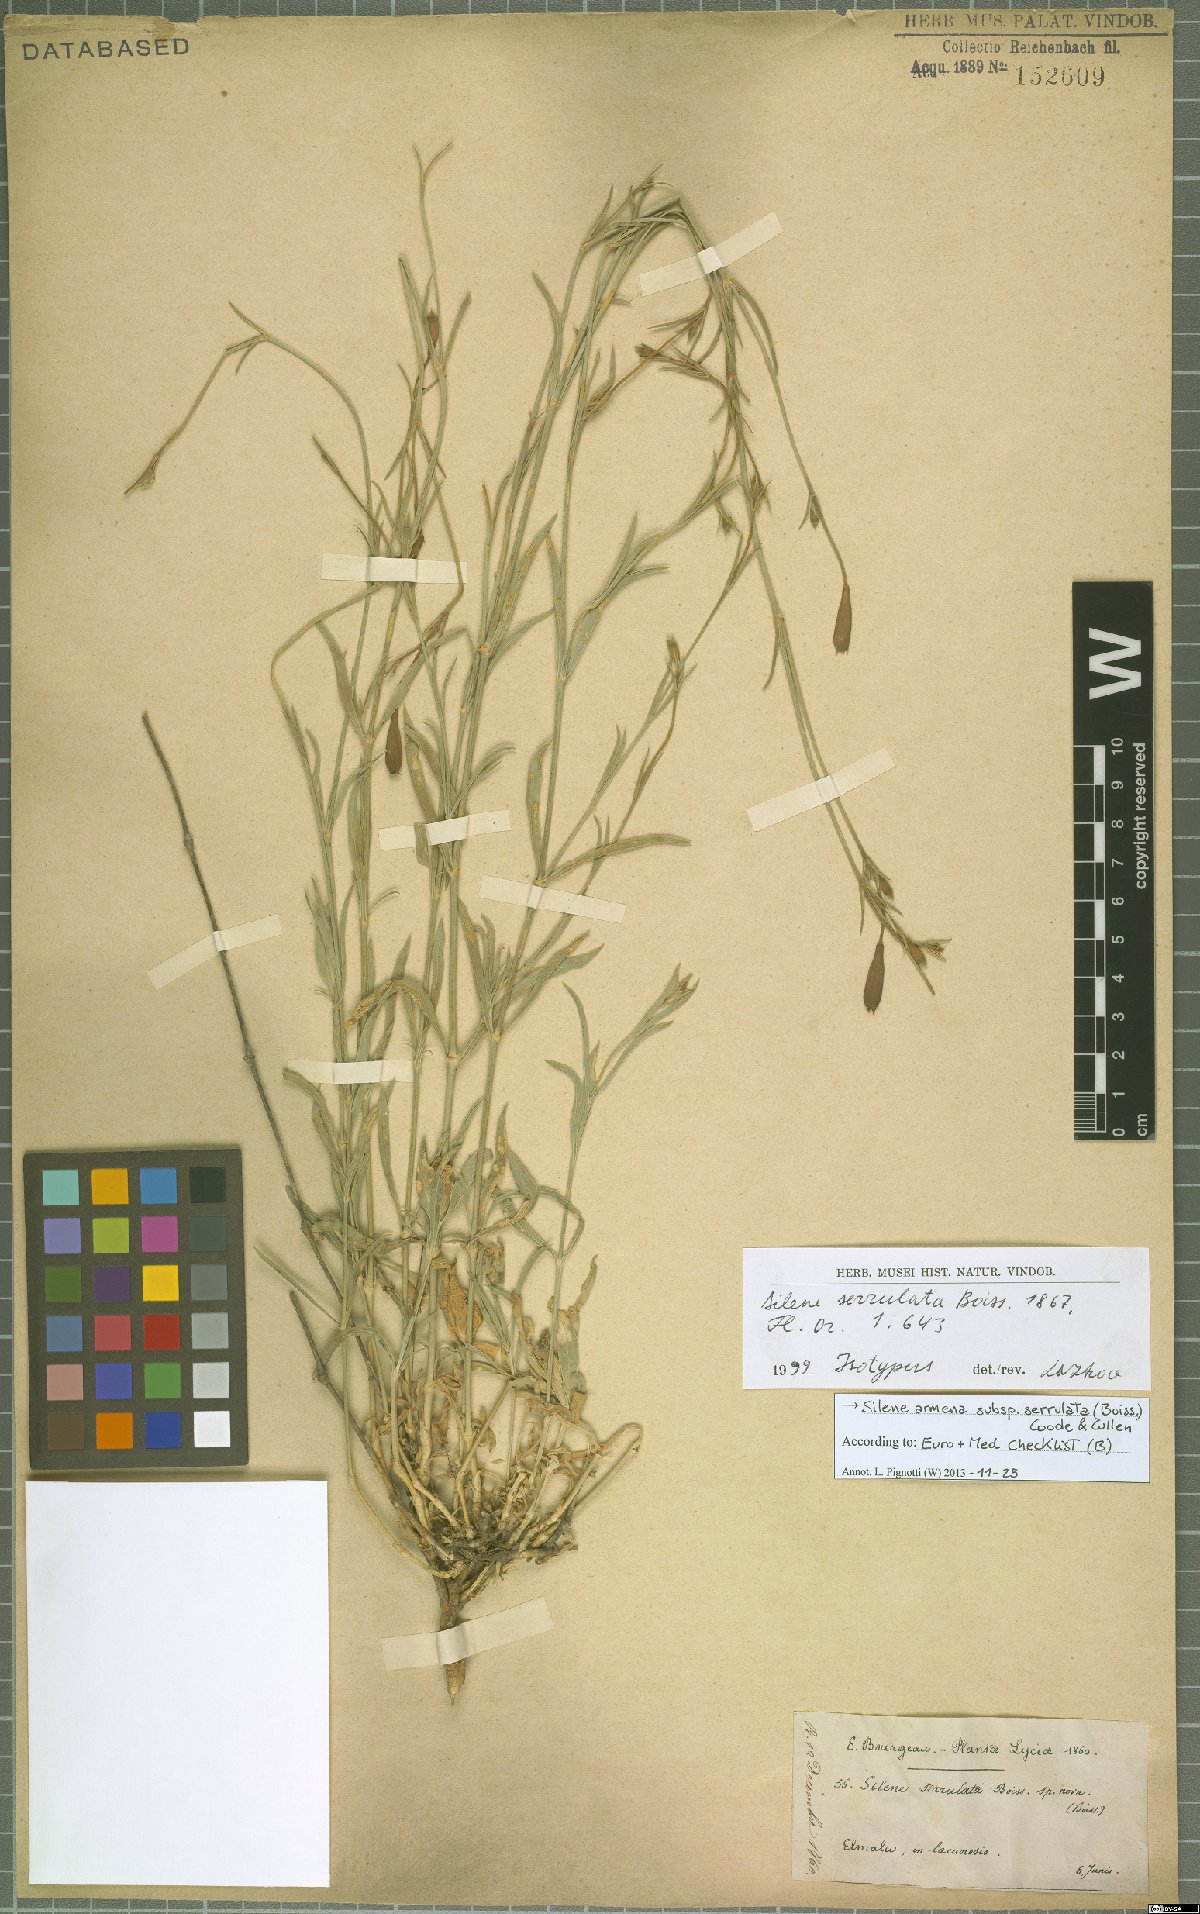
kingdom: Plantae
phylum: Tracheophyta
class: Magnoliopsida
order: Caryophyllales
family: Caryophyllaceae
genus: Silene
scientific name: Silene armena
